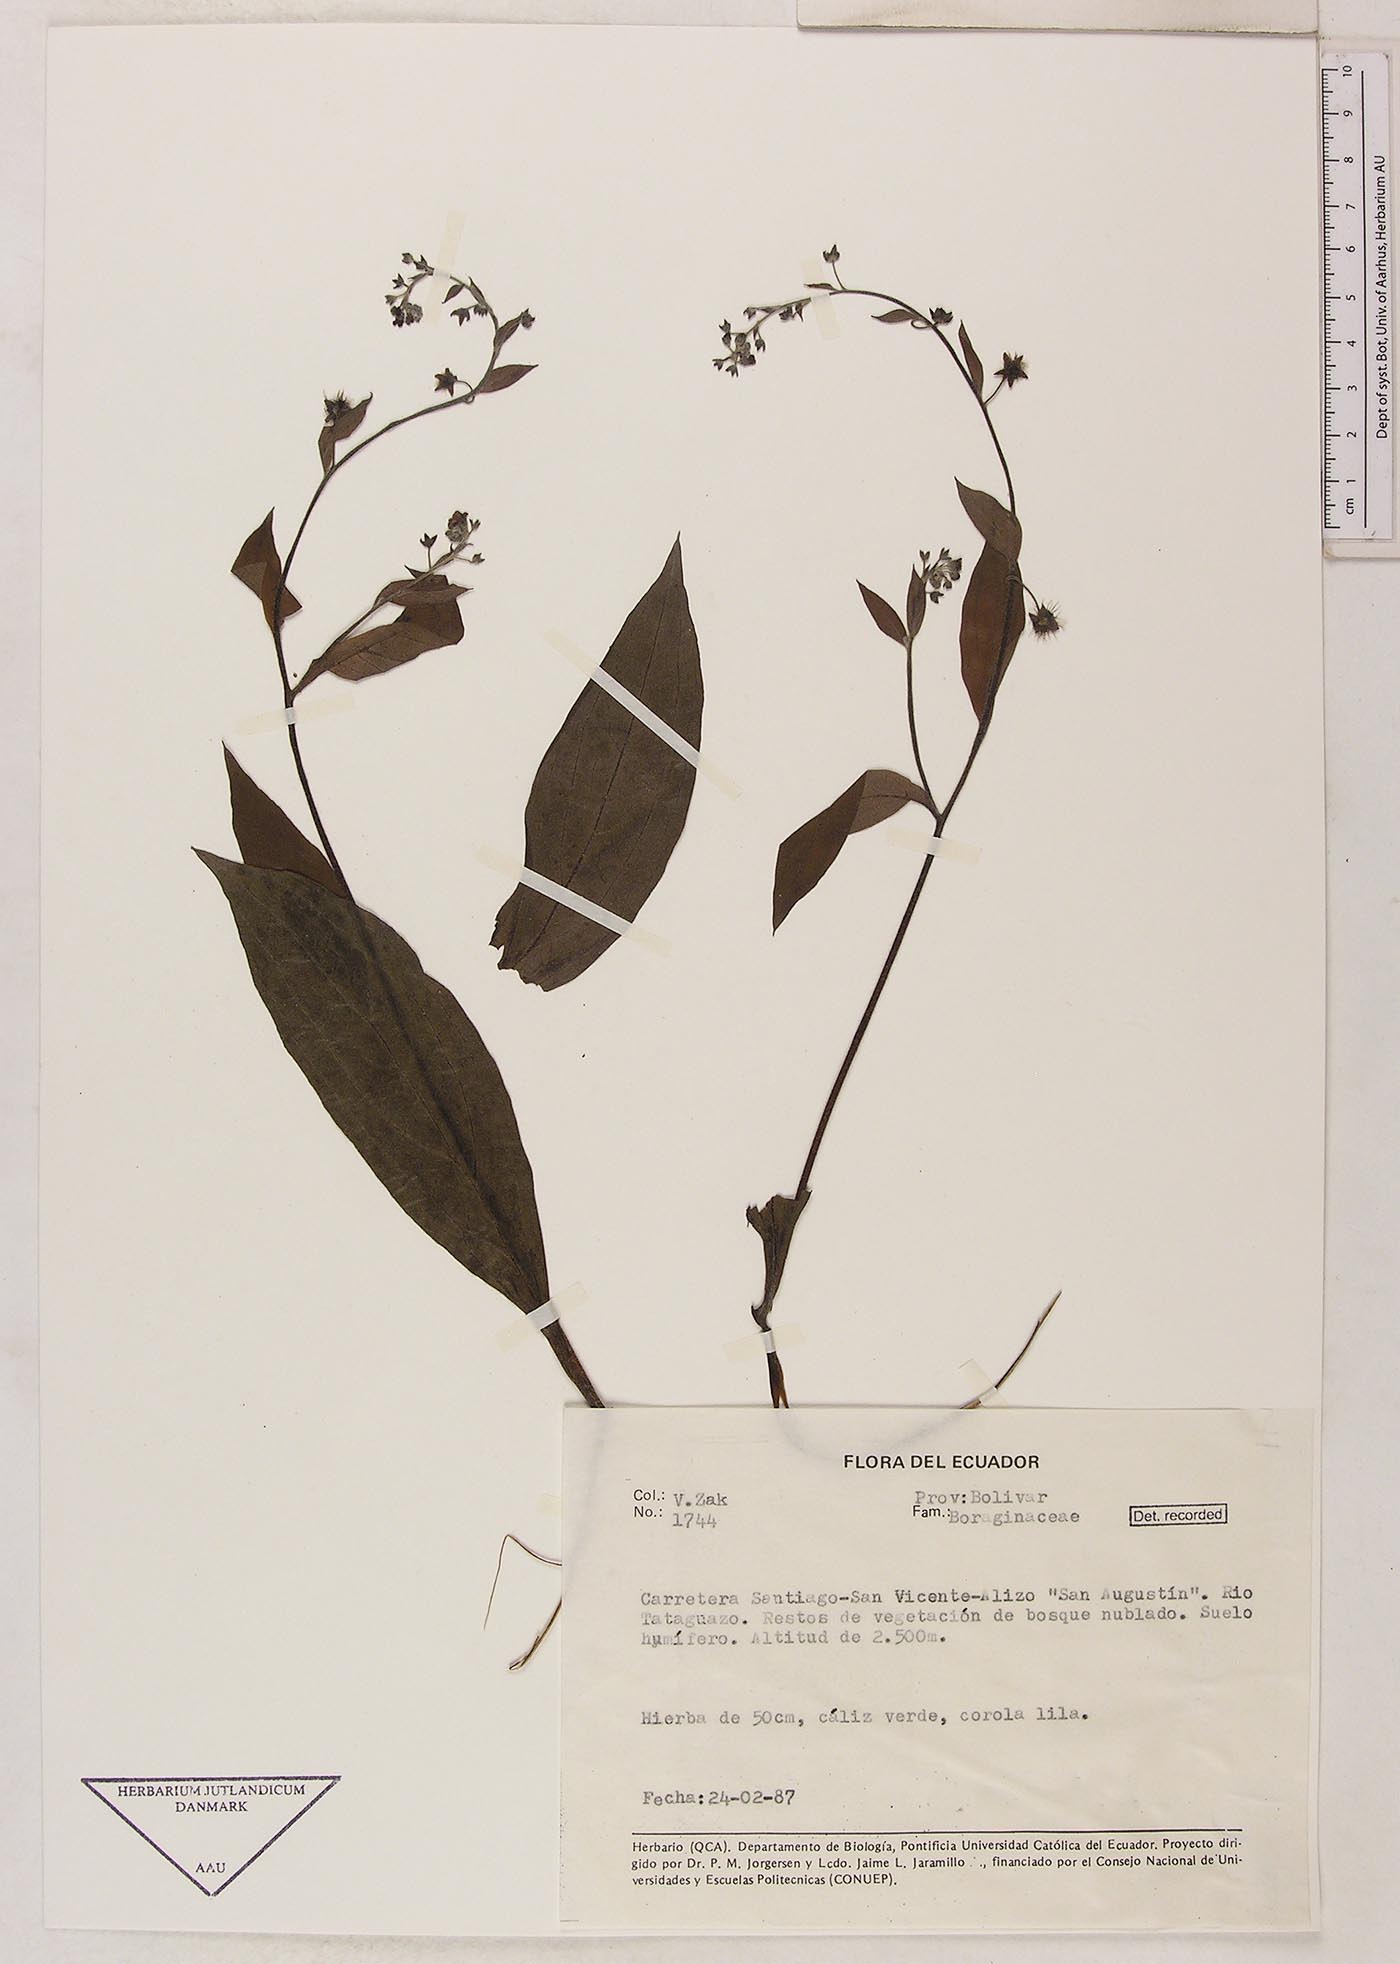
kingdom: Plantae
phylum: Tracheophyta
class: Magnoliopsida
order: Boraginales
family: Boraginaceae
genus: Hackelia
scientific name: Hackelia revoluta
